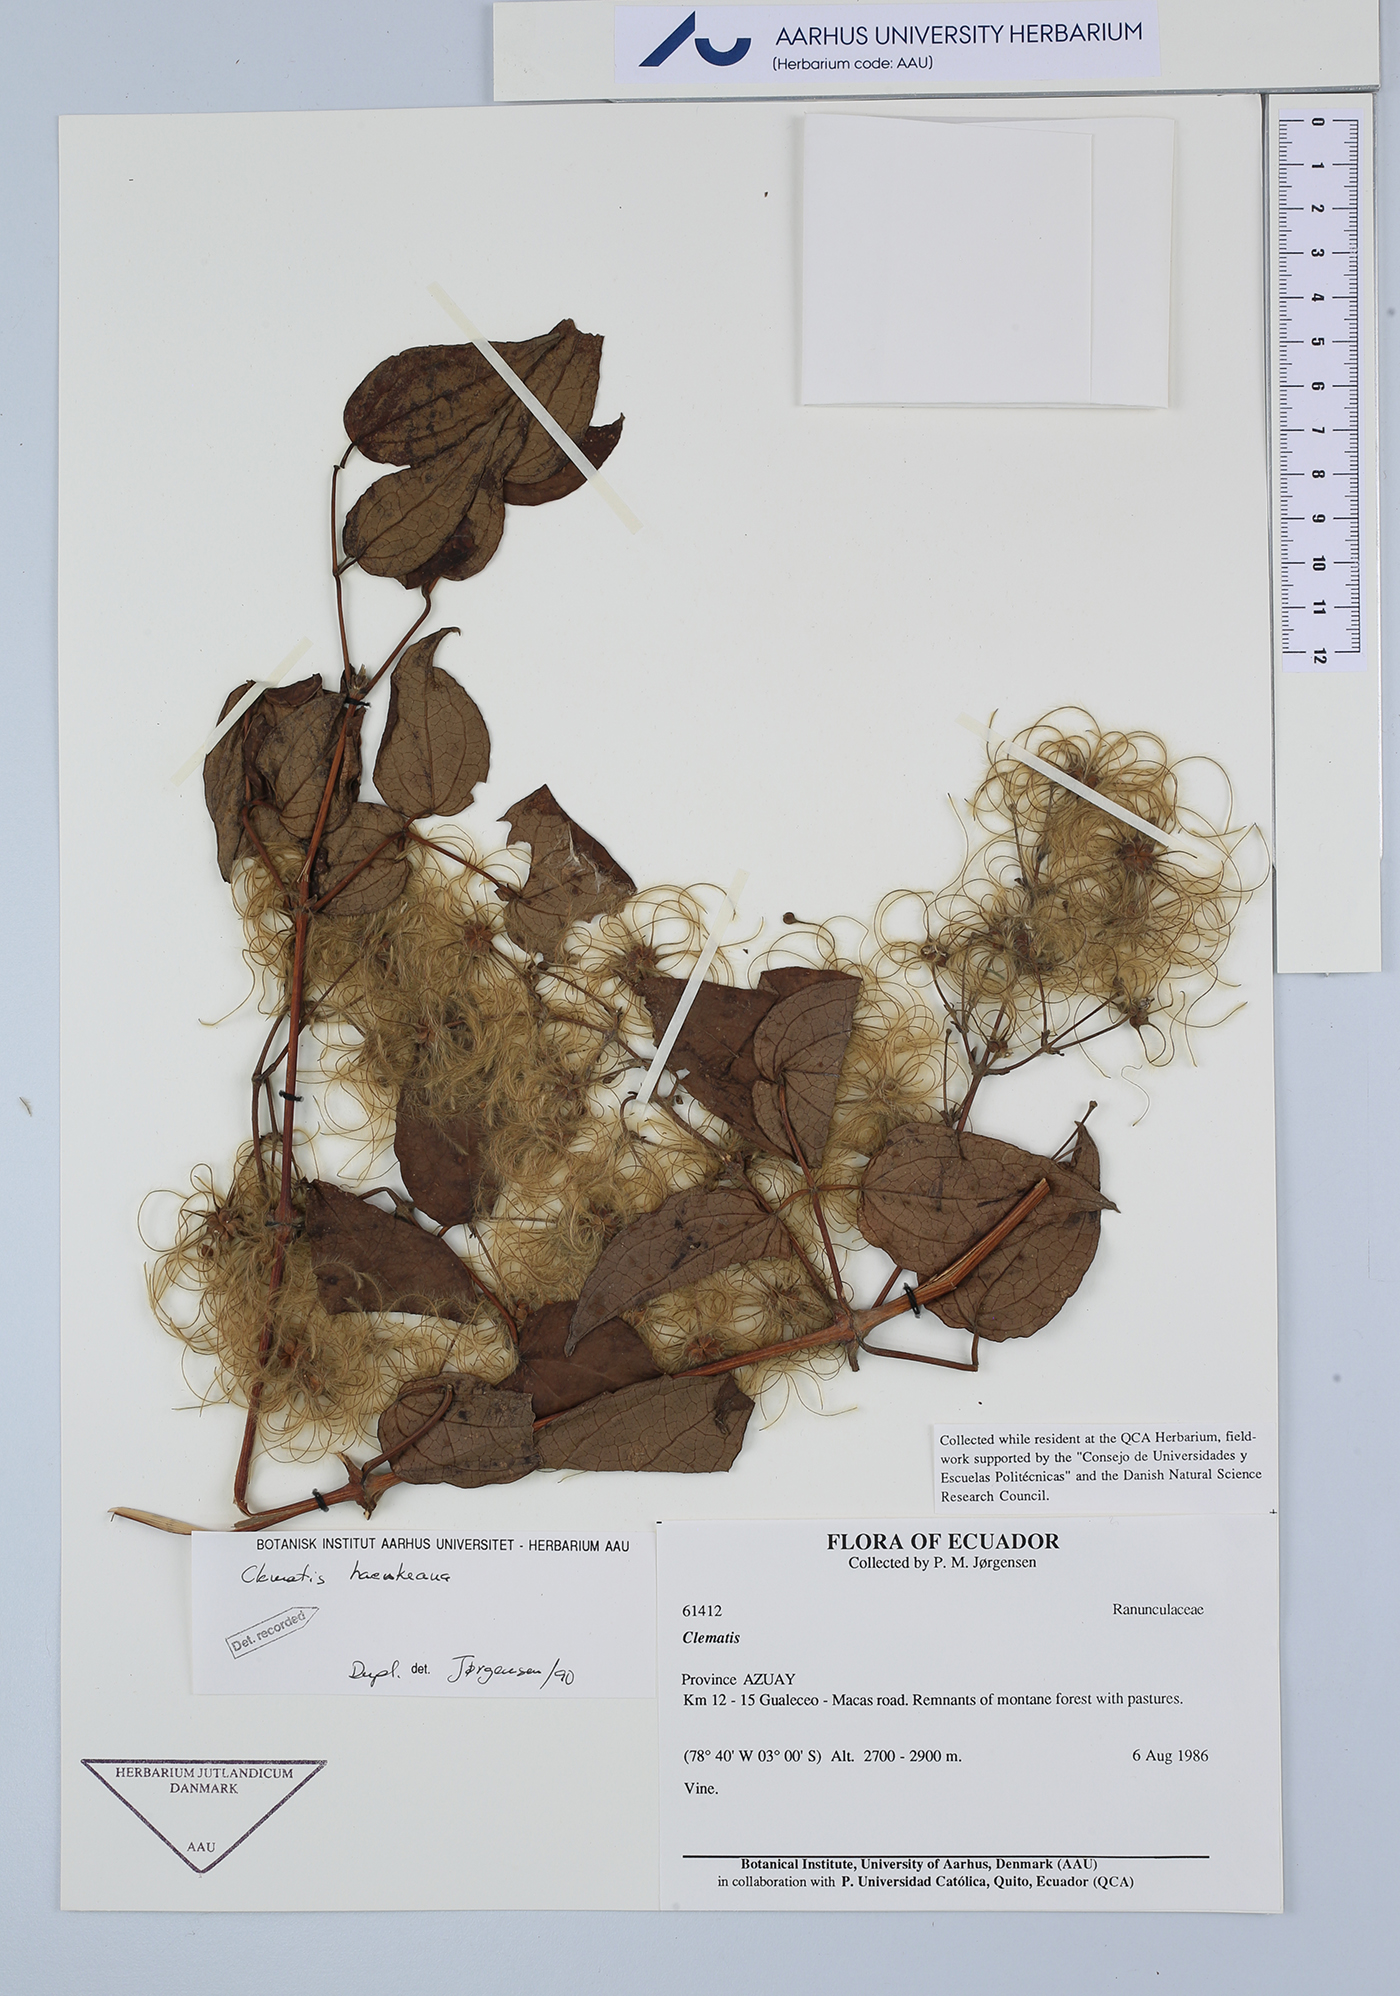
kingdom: Plantae
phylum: Tracheophyta
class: Magnoliopsida
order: Ranunculales
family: Ranunculaceae
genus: Clematis
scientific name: Clematis haenkeana
